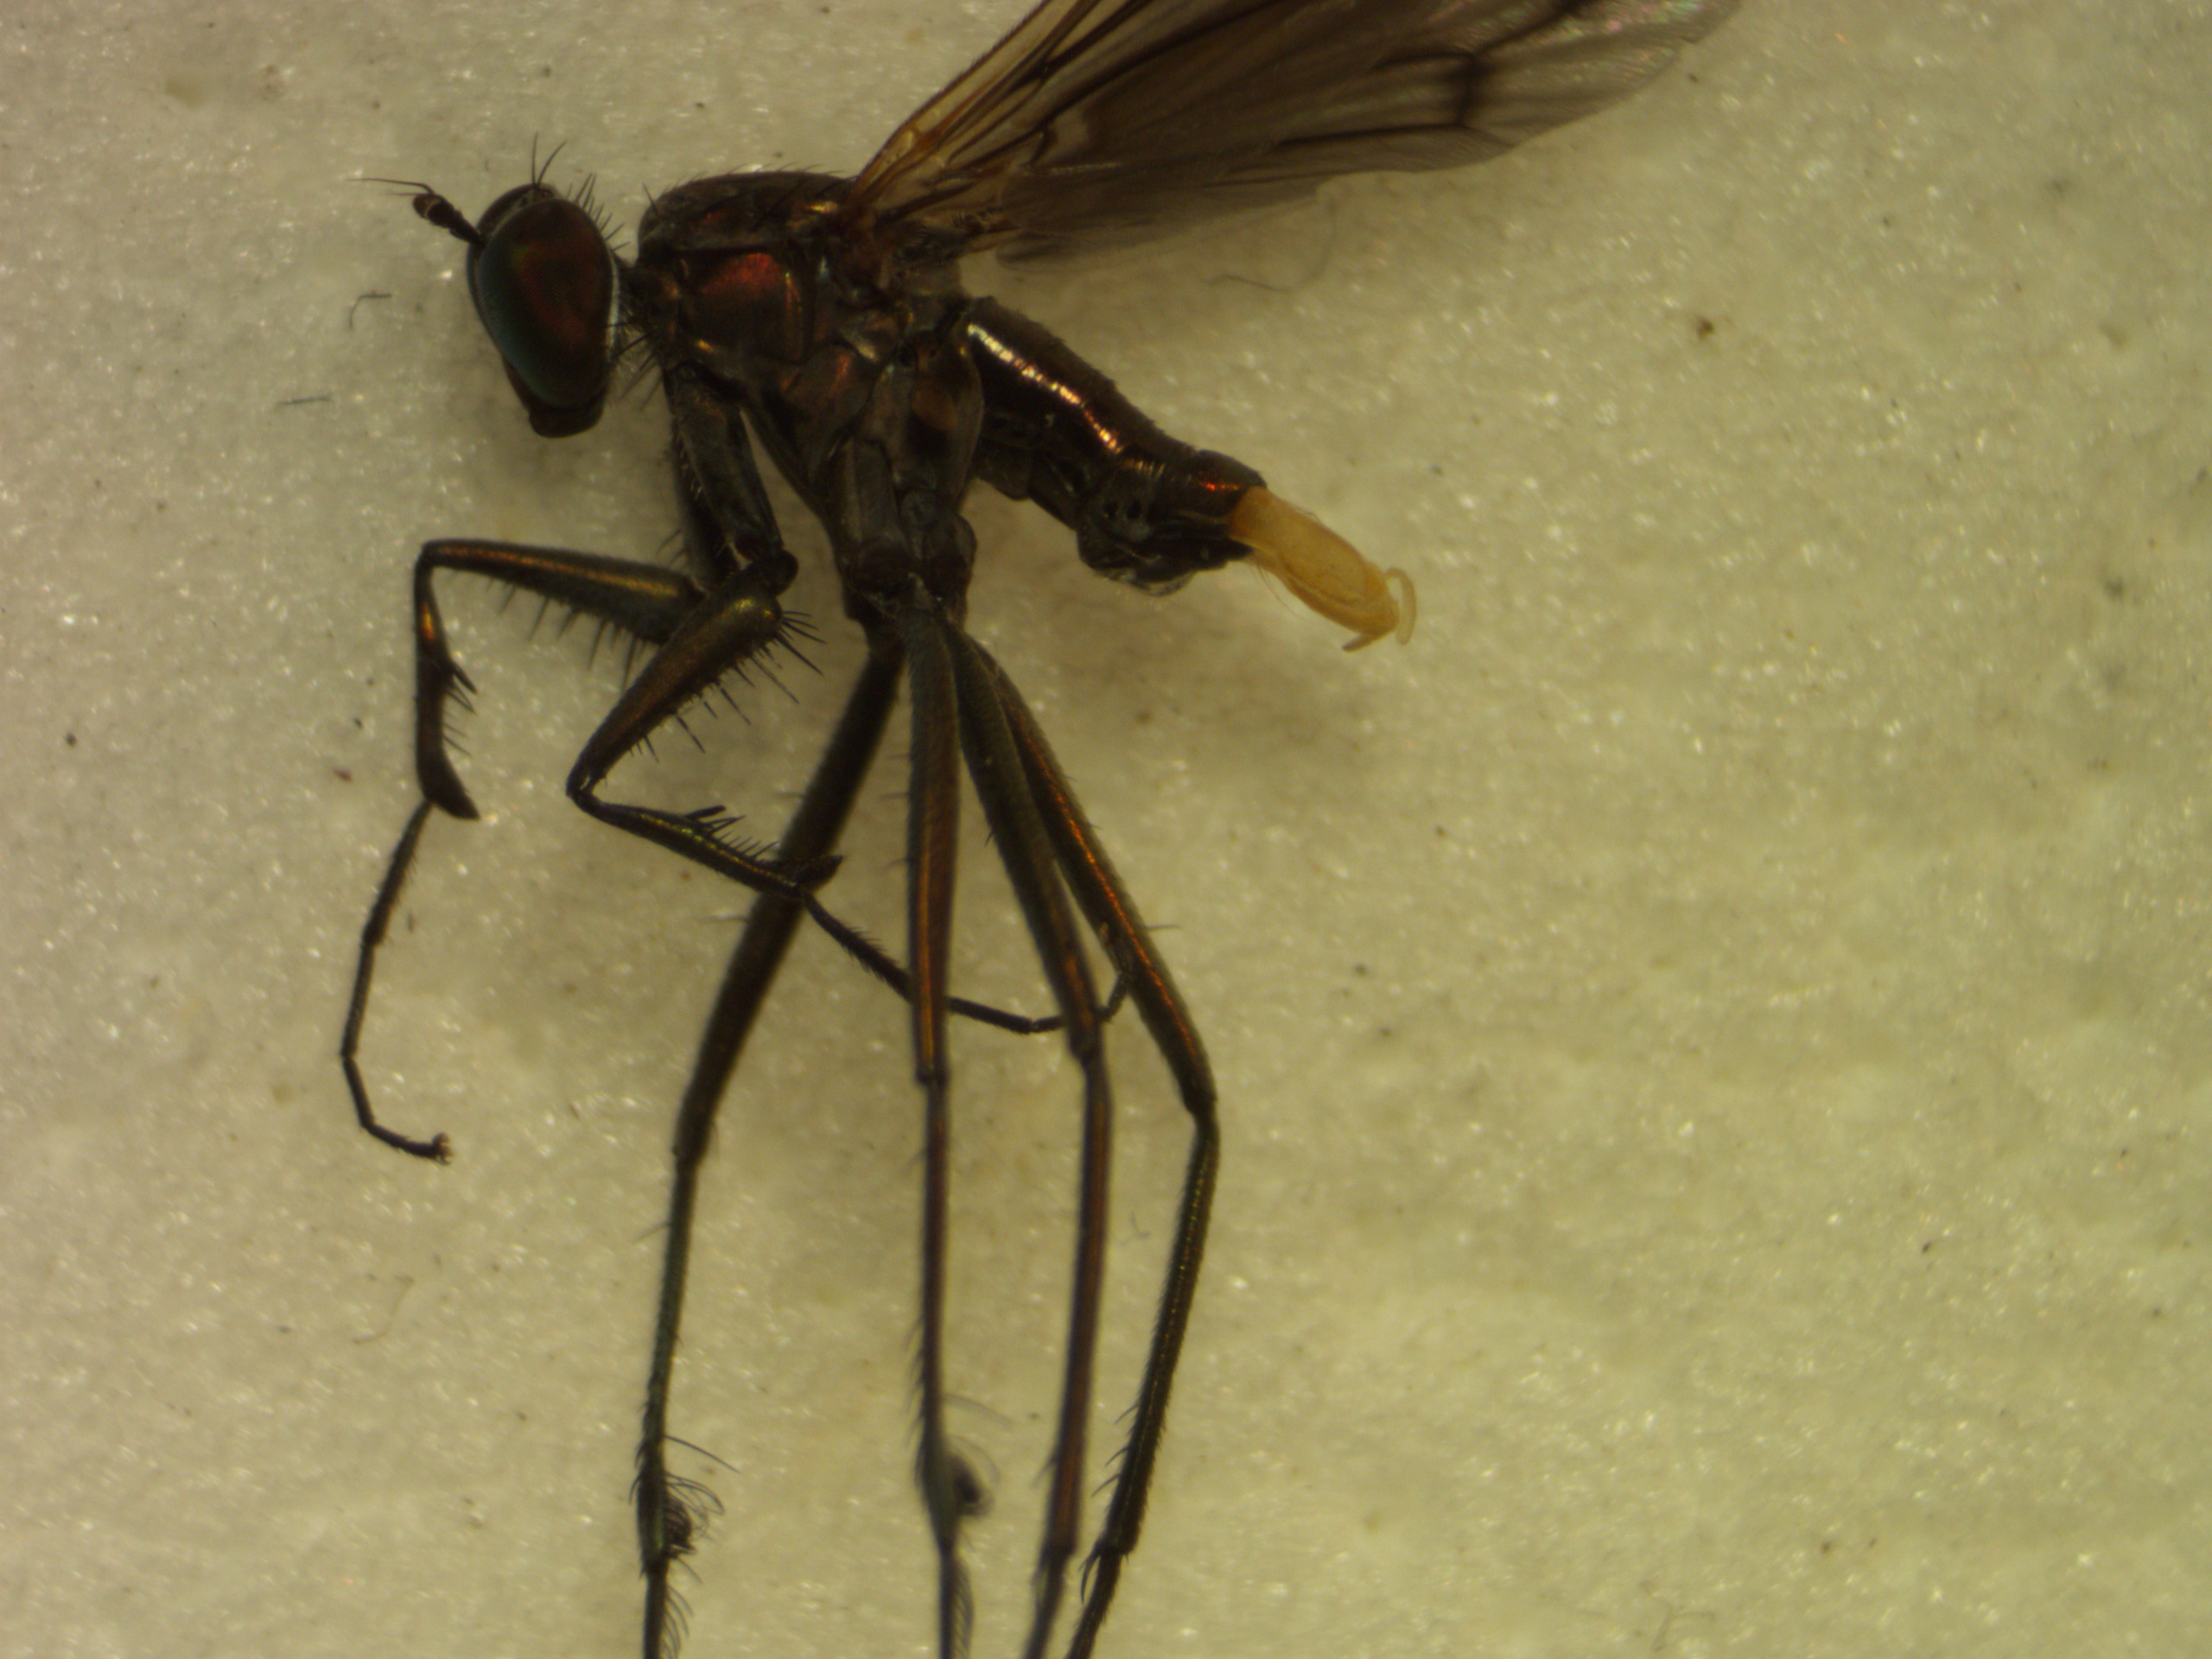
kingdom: Animalia
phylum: Arthropoda
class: Insecta
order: Diptera
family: Dolichopodidae
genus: Scellus
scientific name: Scellus notatus
